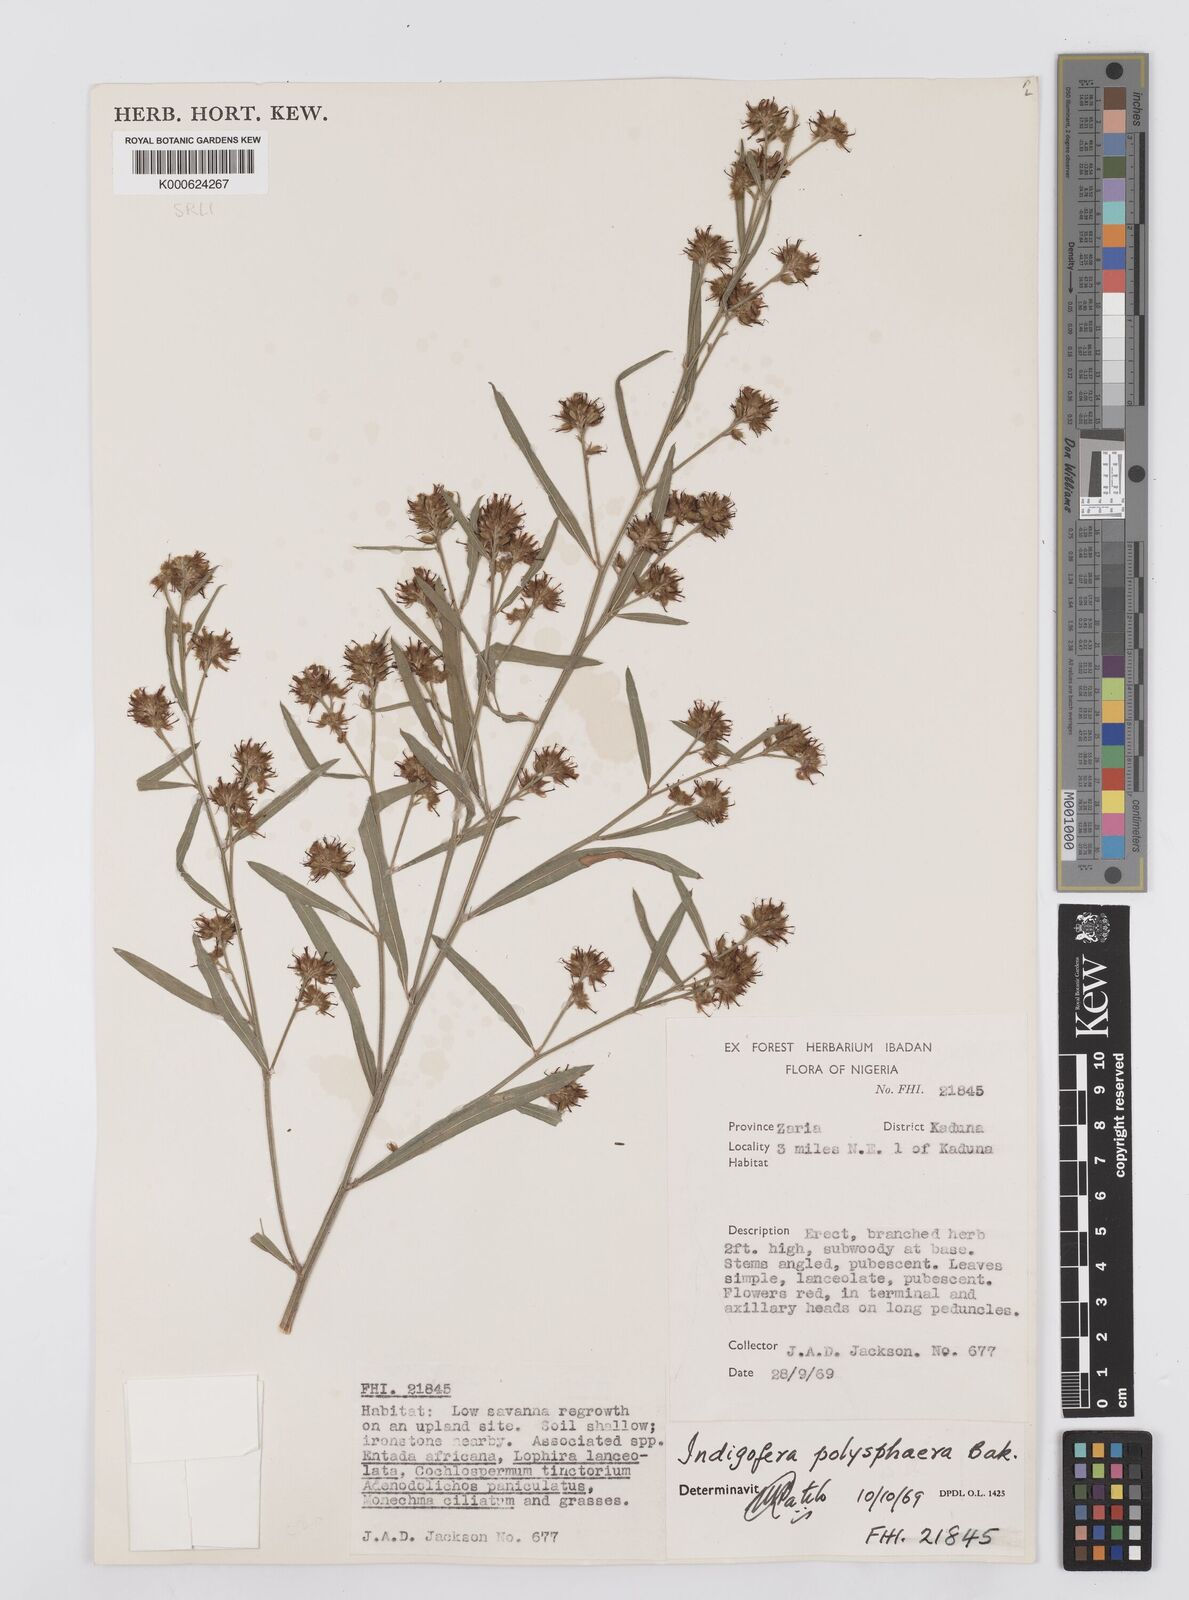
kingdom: Plantae
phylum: Tracheophyta
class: Magnoliopsida
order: Fabales
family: Fabaceae
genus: Indigofera
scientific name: Indigofera polysphaera
